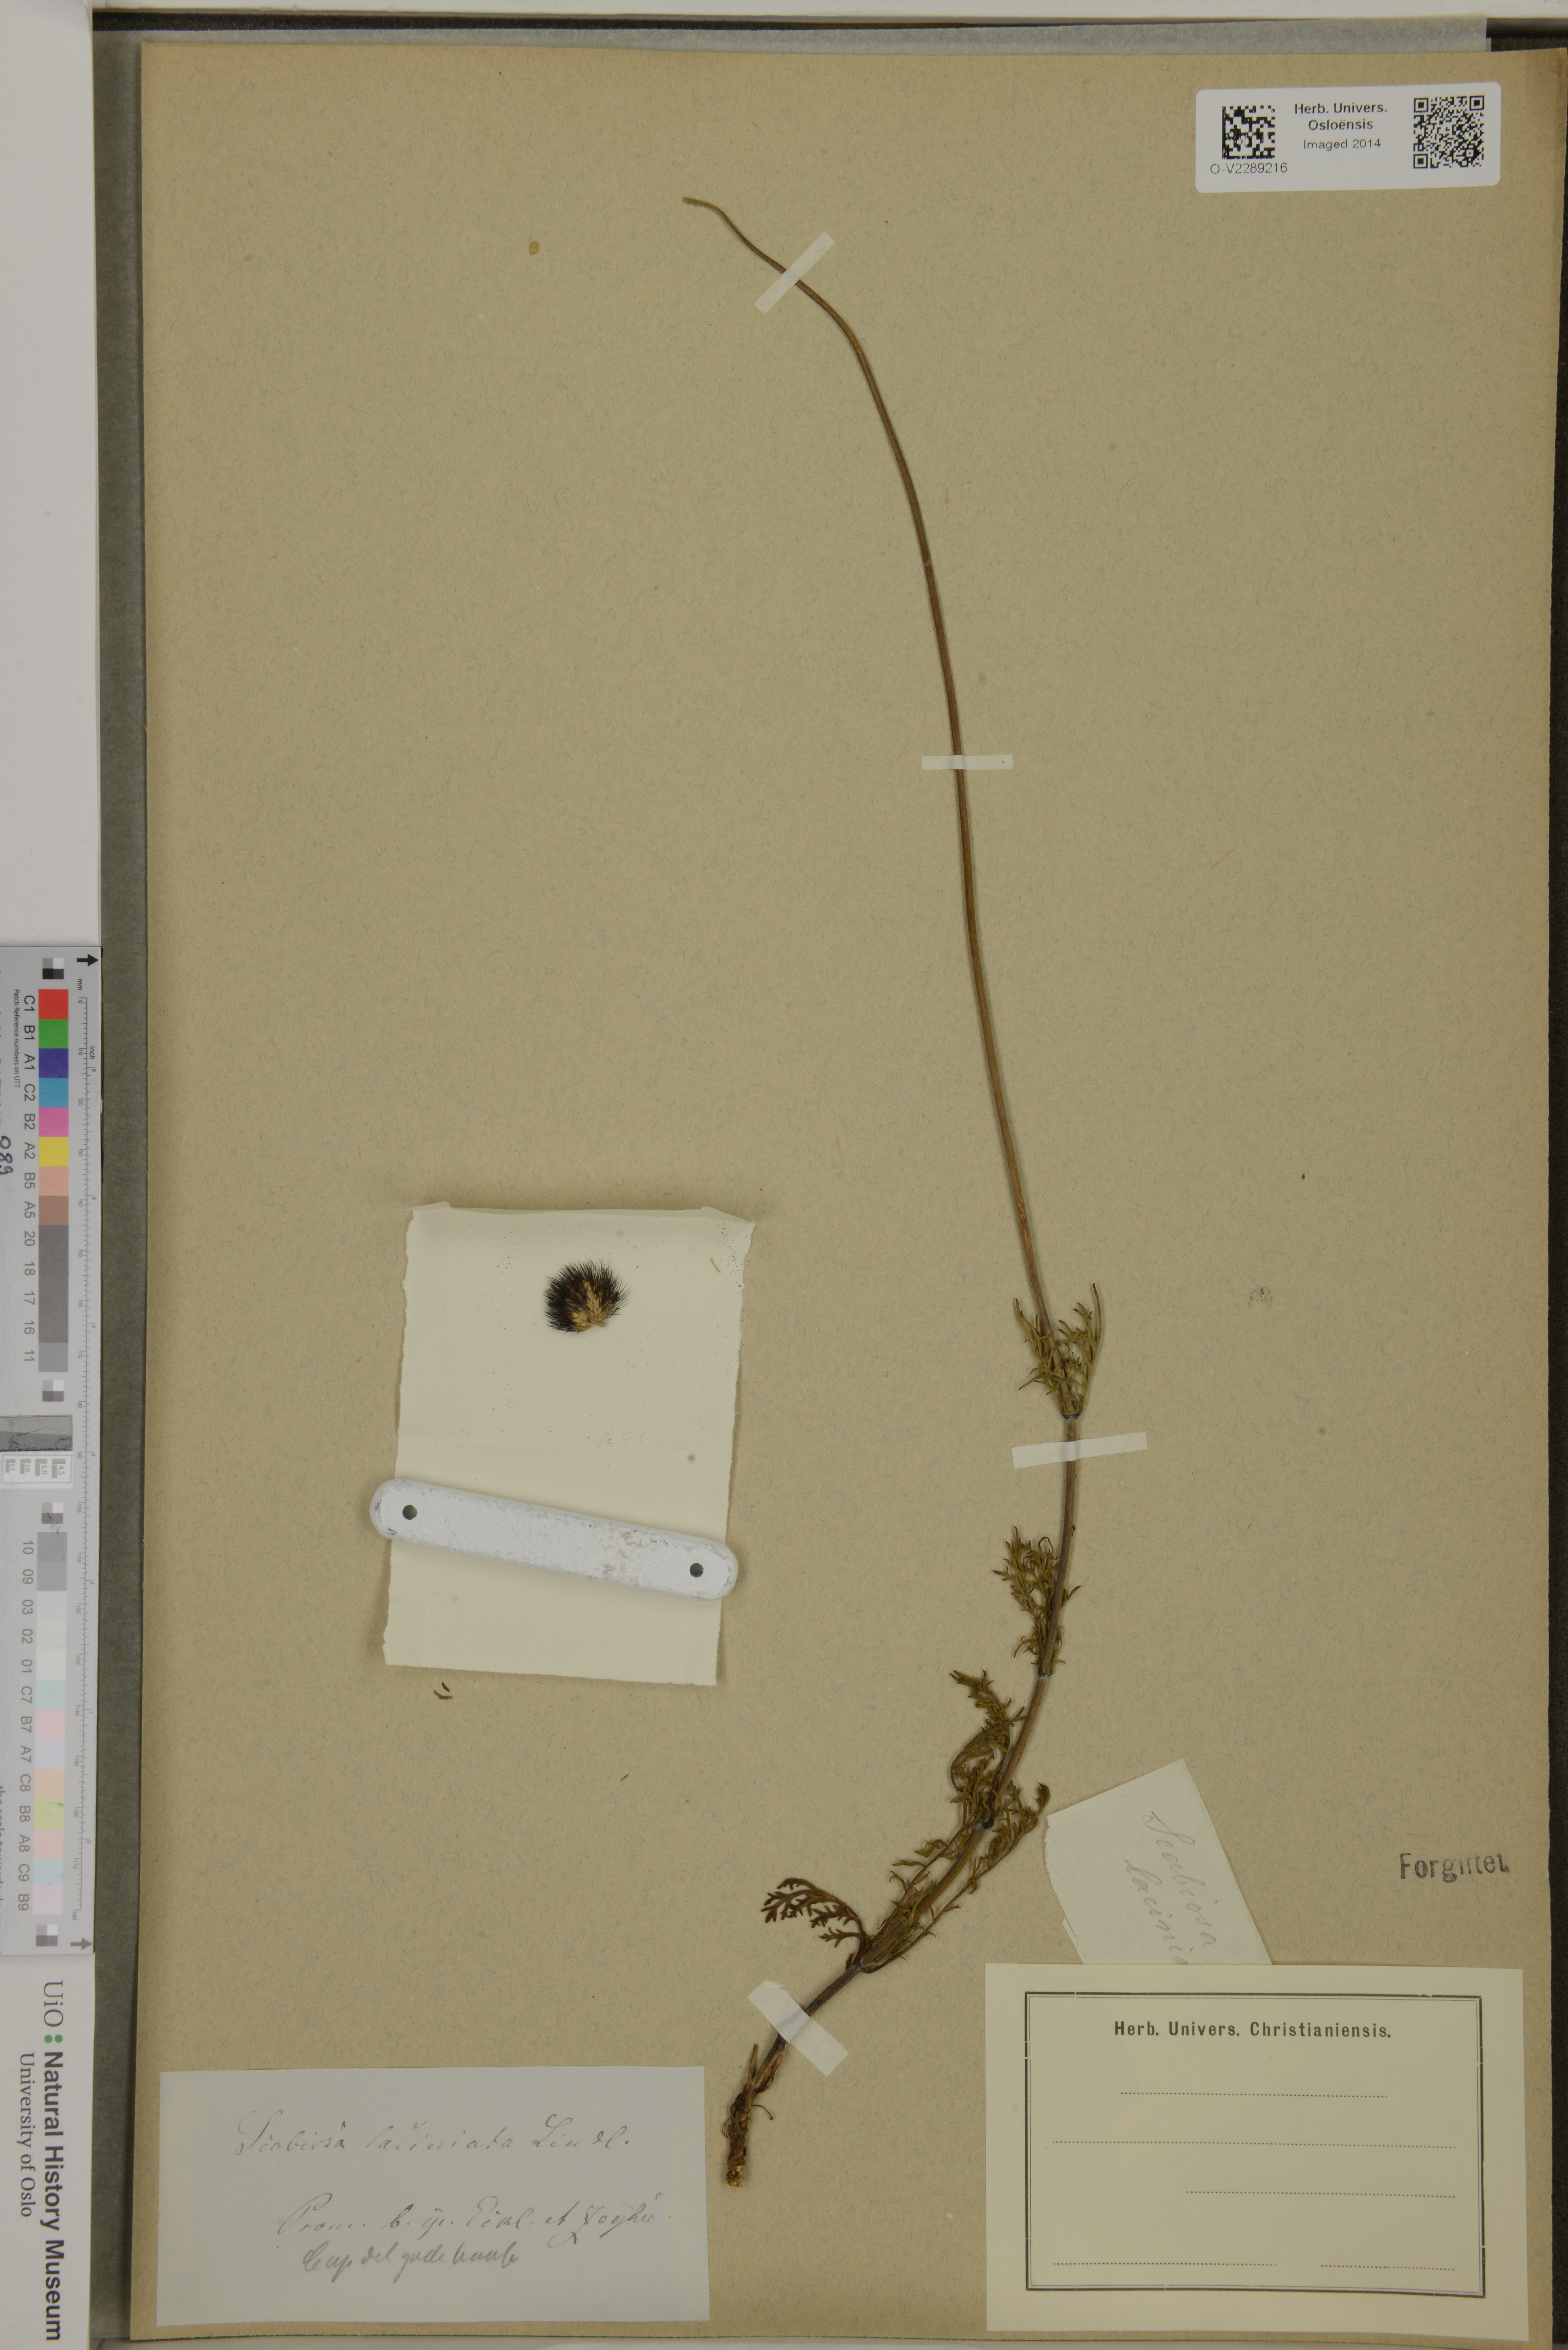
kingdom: Plantae
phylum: Tracheophyta
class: Magnoliopsida
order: Dipsacales
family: Caprifoliaceae
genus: Scabiosa
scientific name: Scabiosa columbaria
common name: Small scabious
